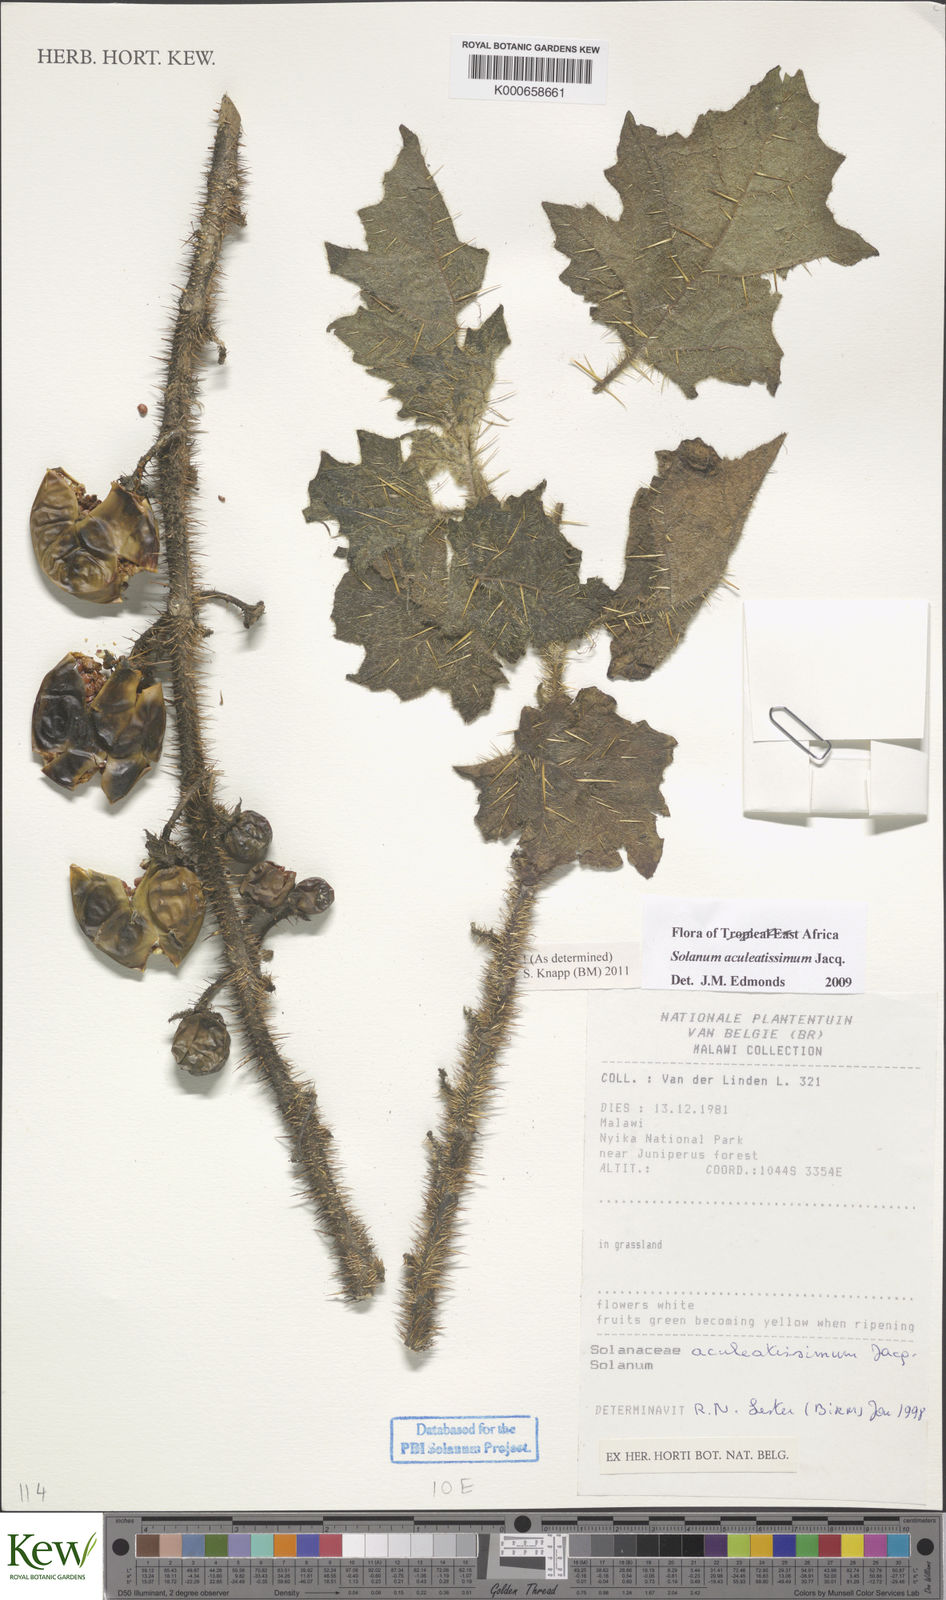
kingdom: Plantae
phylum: Tracheophyta
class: Magnoliopsida
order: Solanales
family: Solanaceae
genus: Solanum
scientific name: Solanum aculeatissimum
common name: Dutch eggplant
